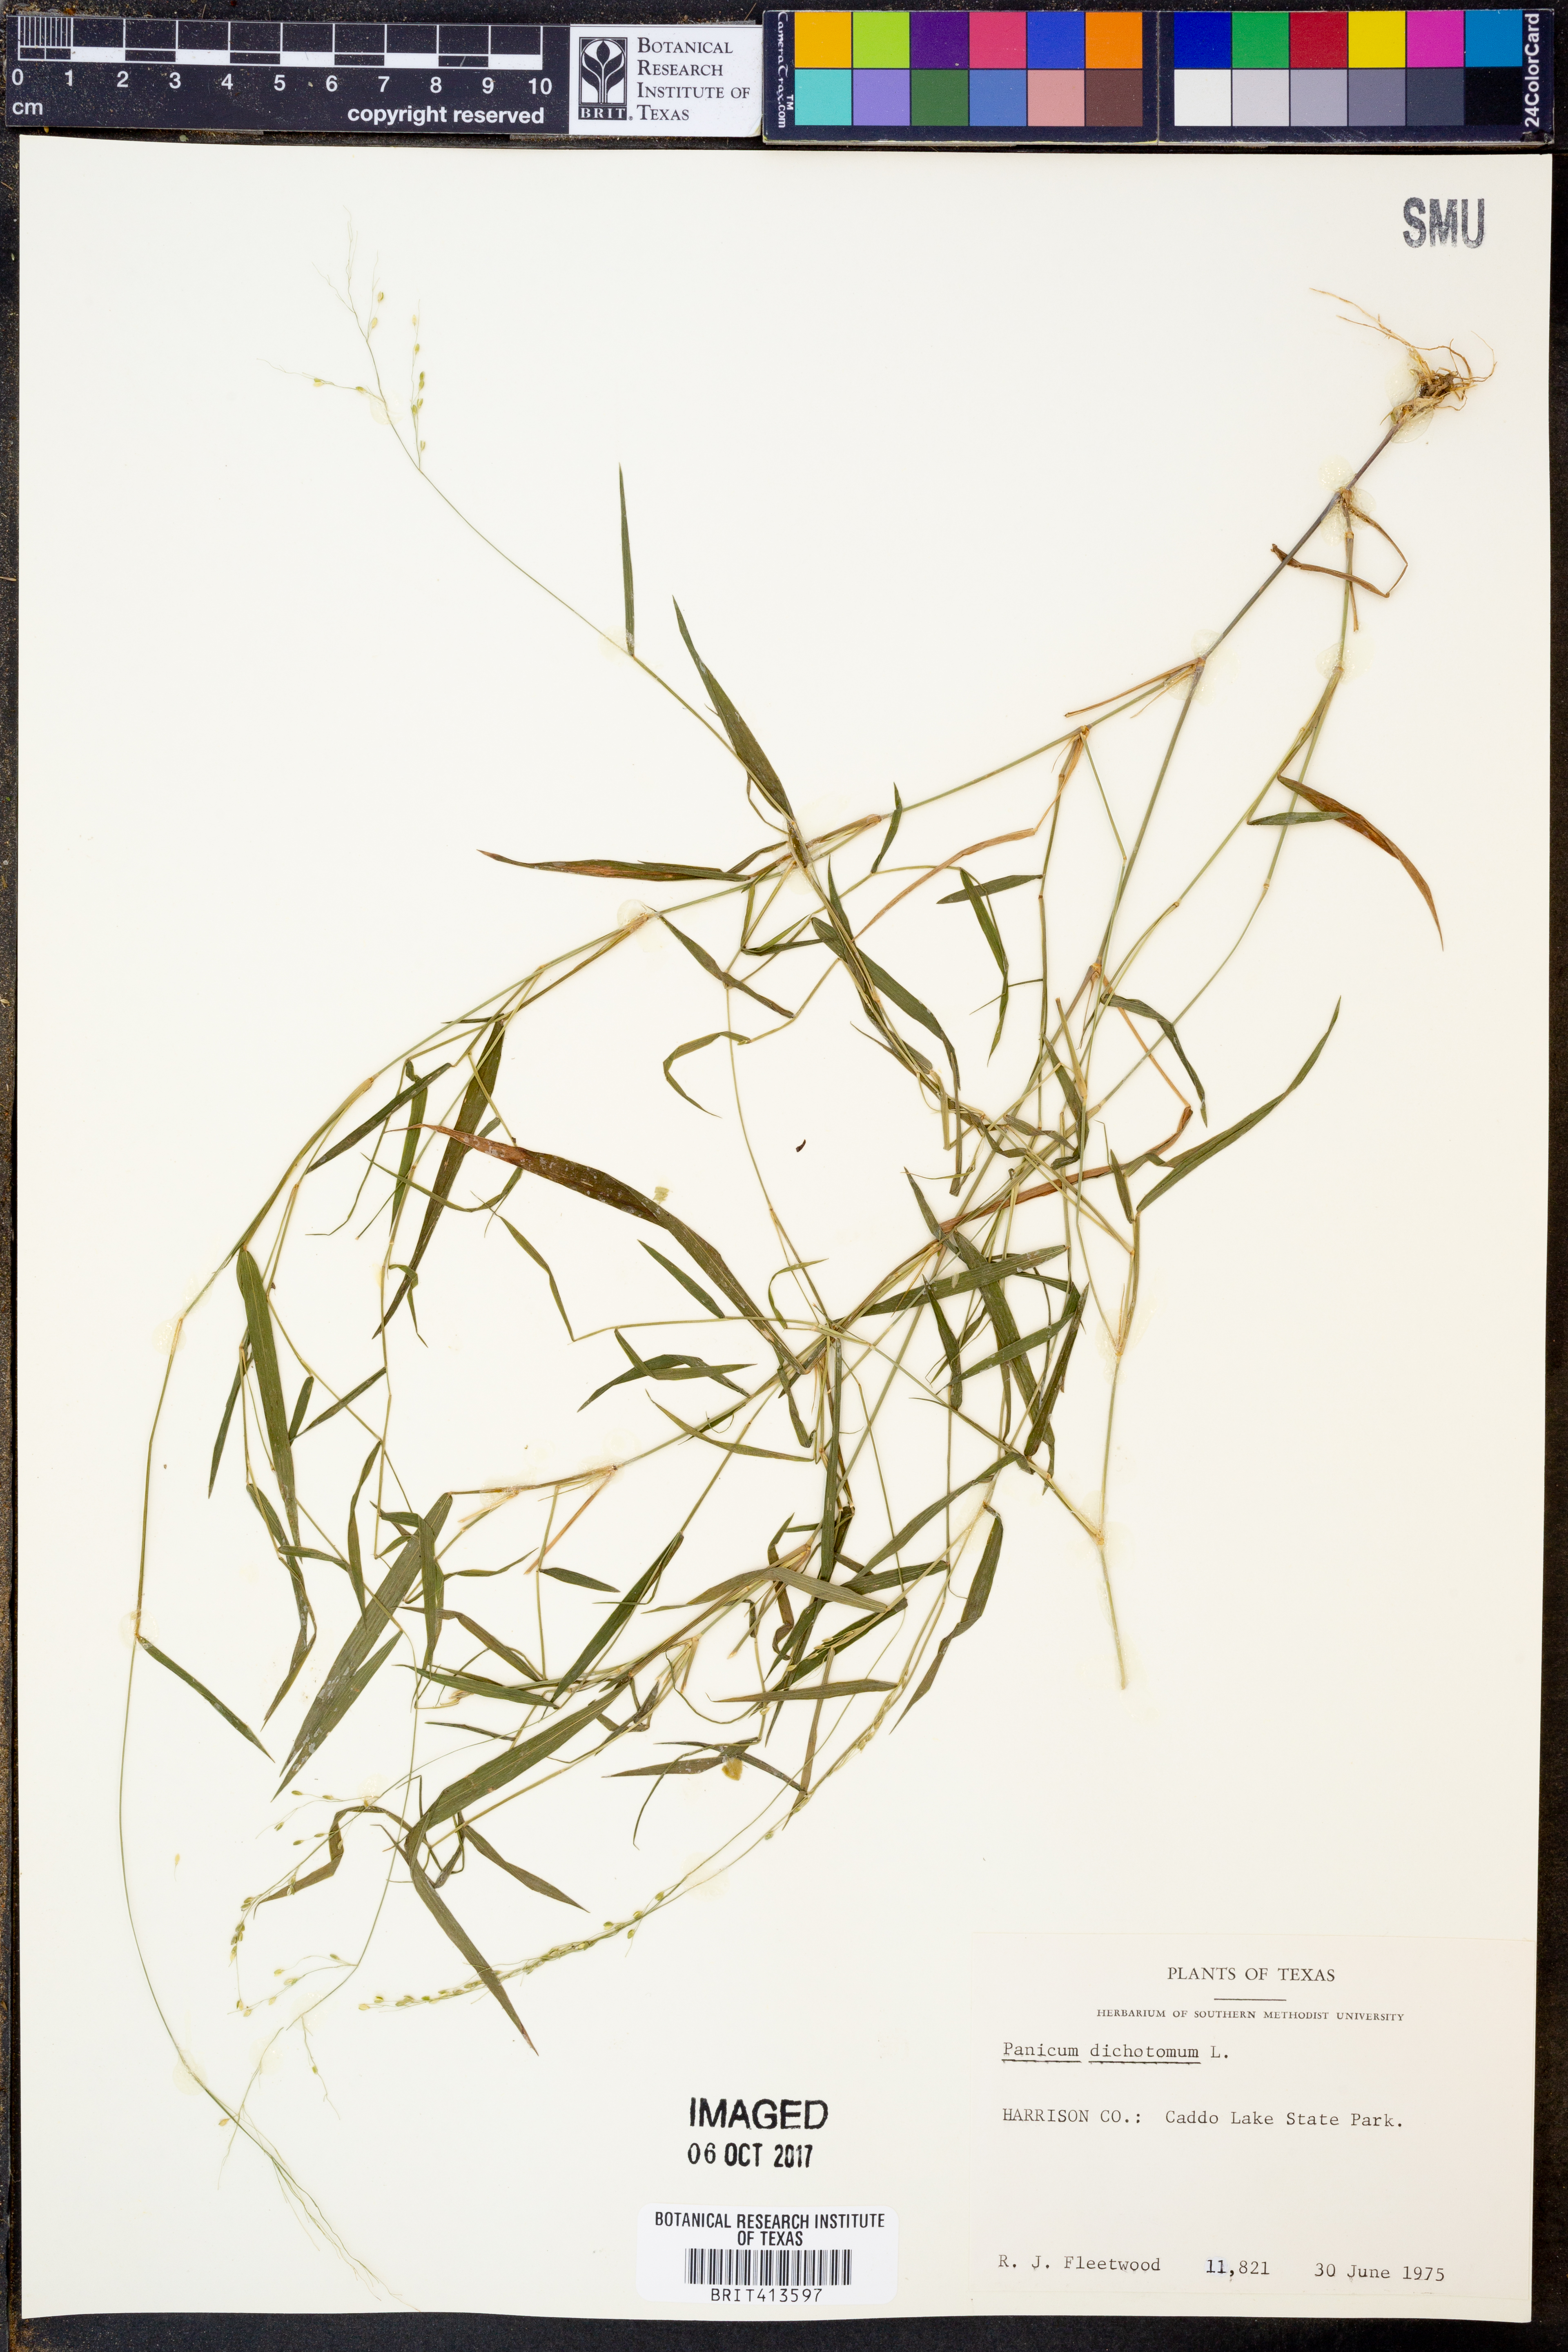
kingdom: Plantae
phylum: Tracheophyta
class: Liliopsida
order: Poales
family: Poaceae
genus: Dichanthelium
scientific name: Dichanthelium dichotomum
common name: Cypress panicgrass
